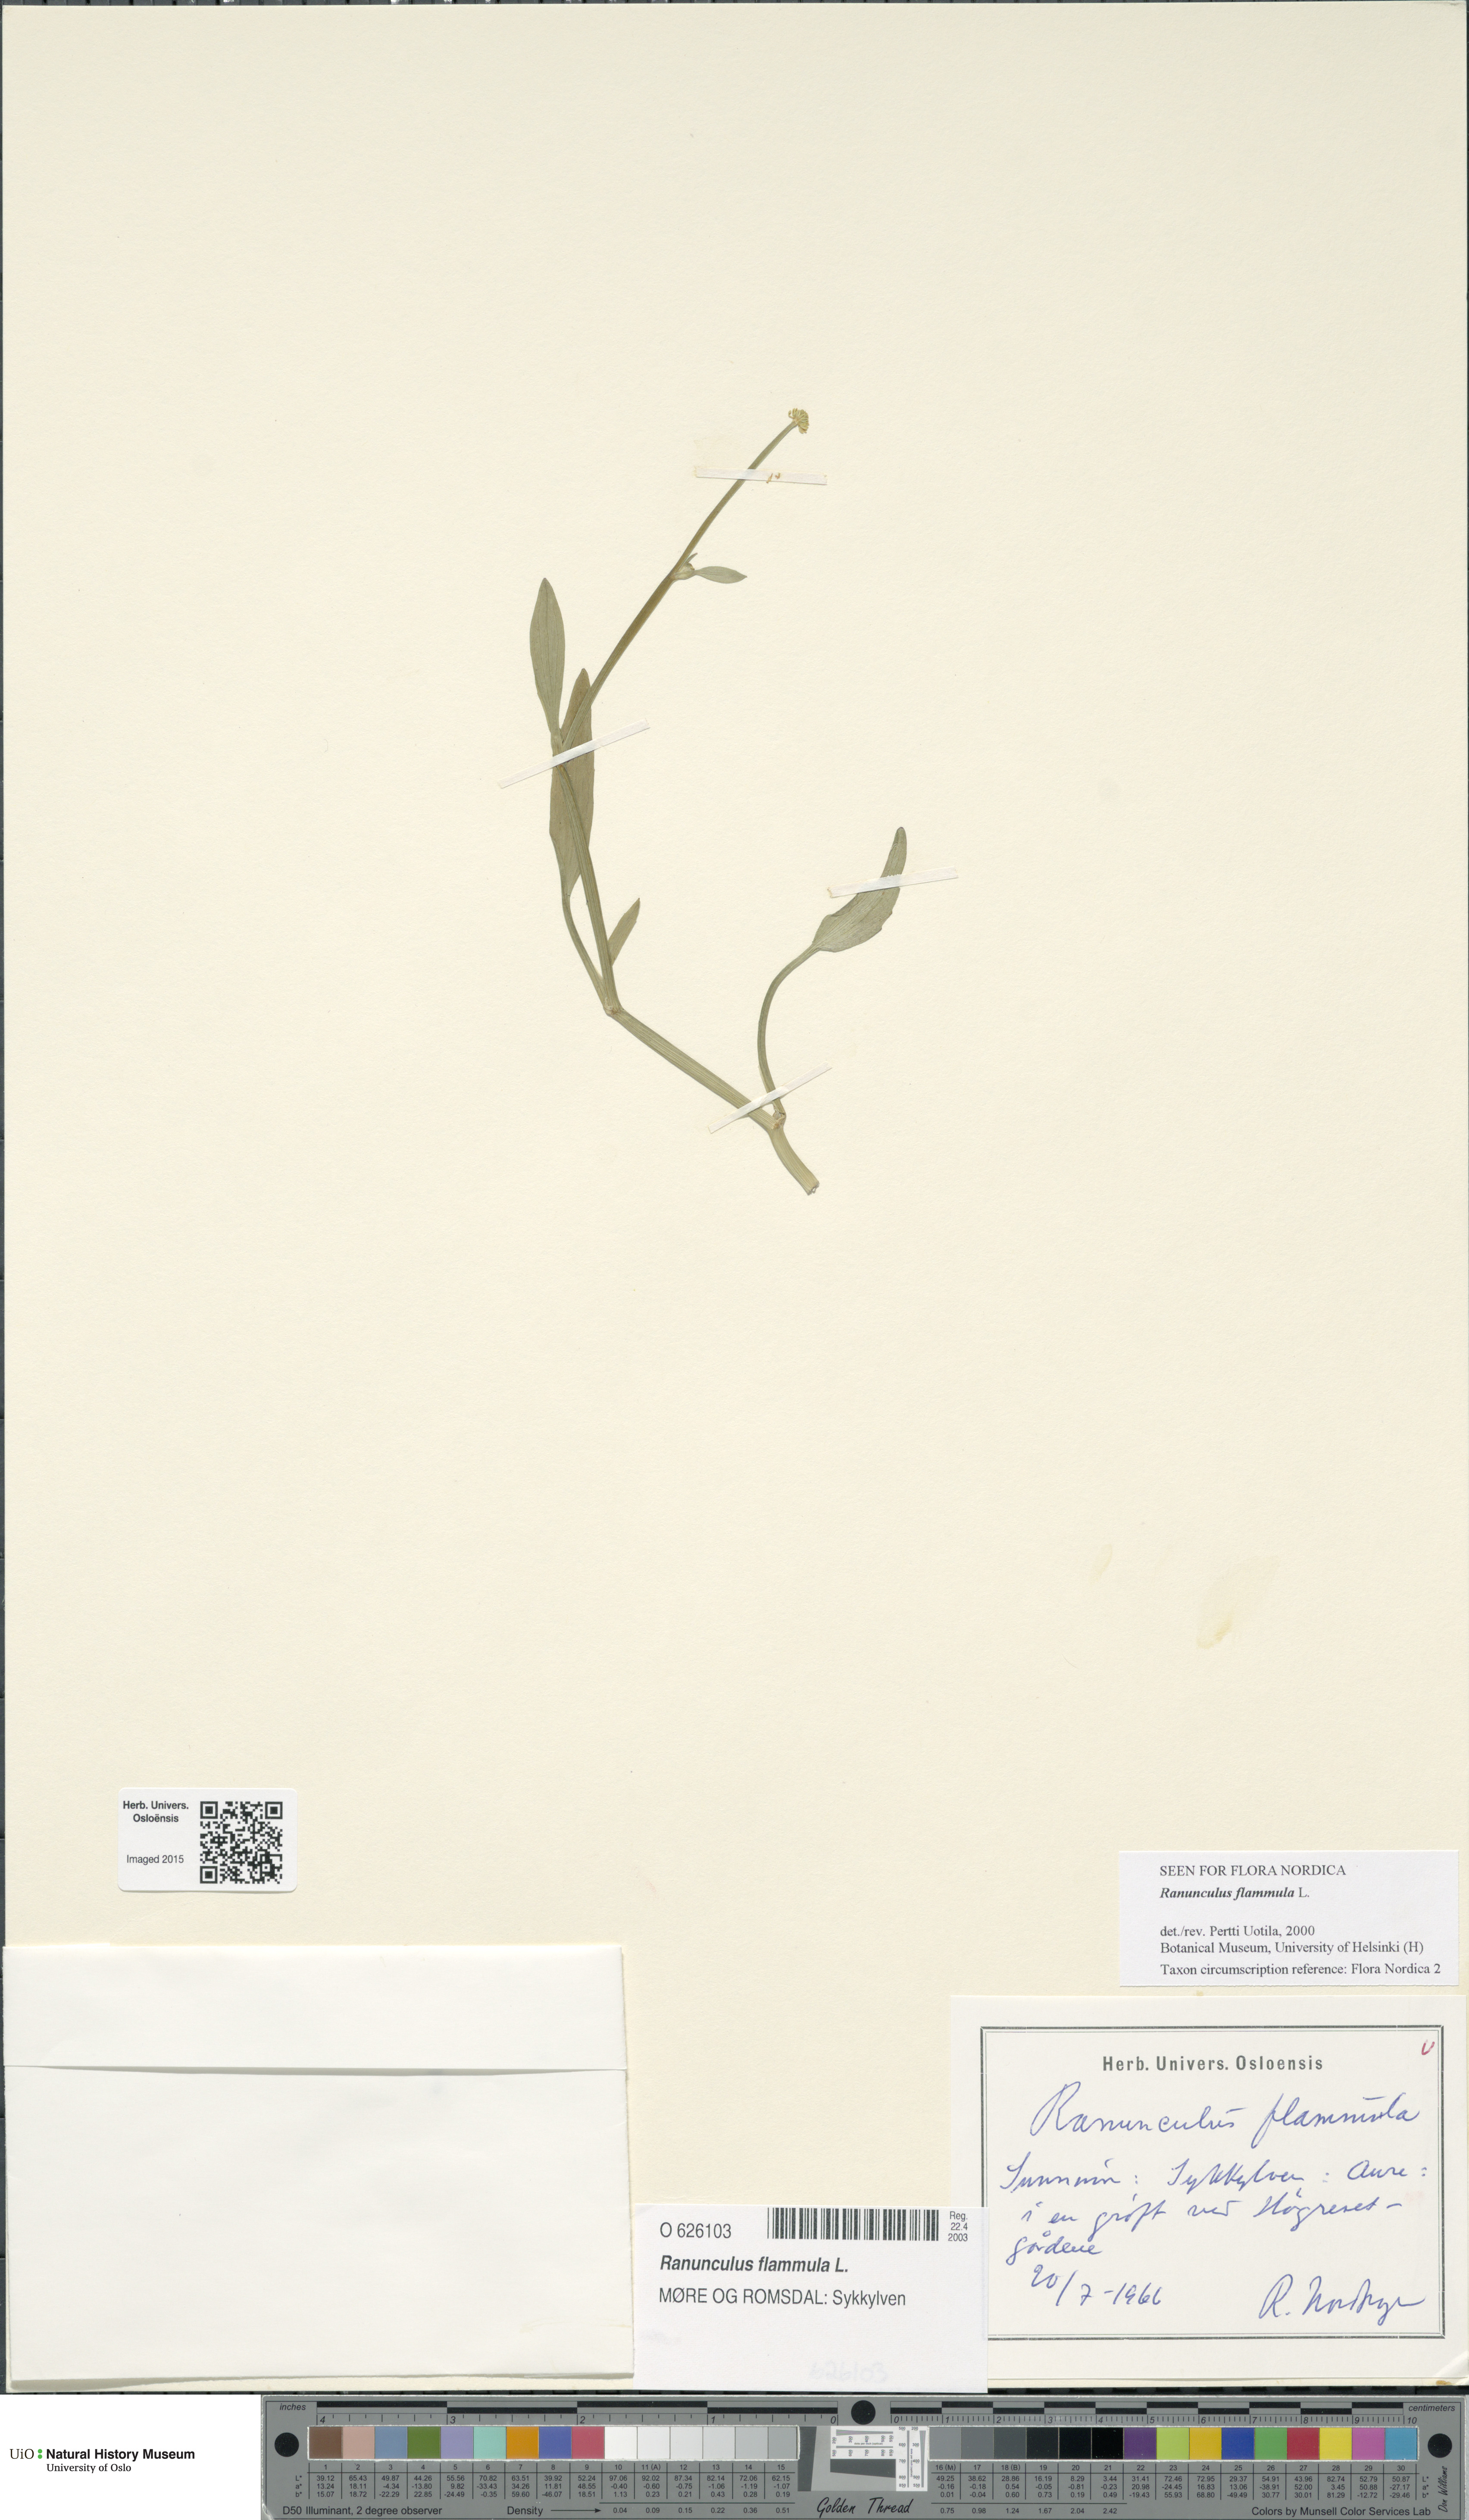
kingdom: Plantae
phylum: Tracheophyta
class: Magnoliopsida
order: Ranunculales
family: Ranunculaceae
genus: Ranunculus
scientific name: Ranunculus flammula
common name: Lesser spearwort
